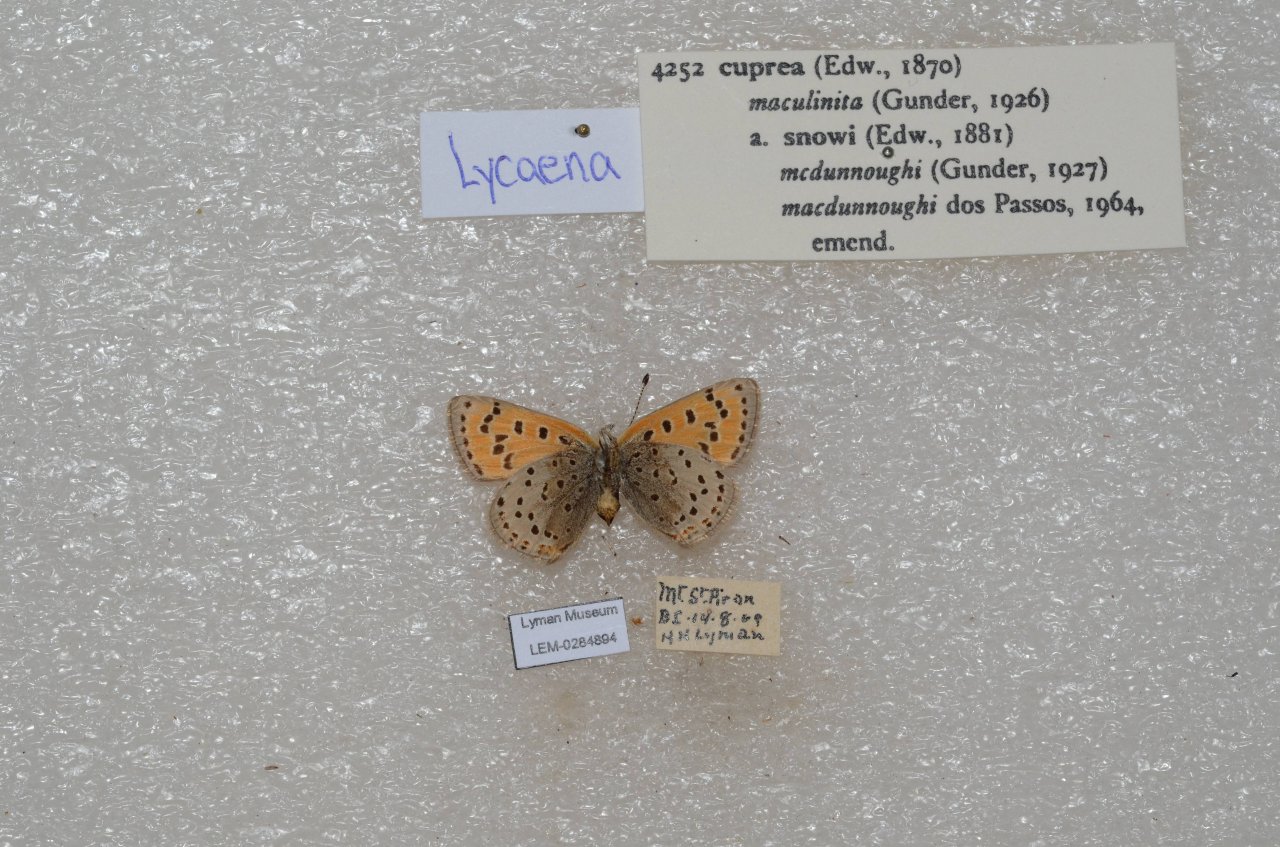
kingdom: Animalia
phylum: Arthropoda
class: Insecta
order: Lepidoptera
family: Lycaenidae
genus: Lycaena
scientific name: Lycaena cupreus
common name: Lustrous Copper
